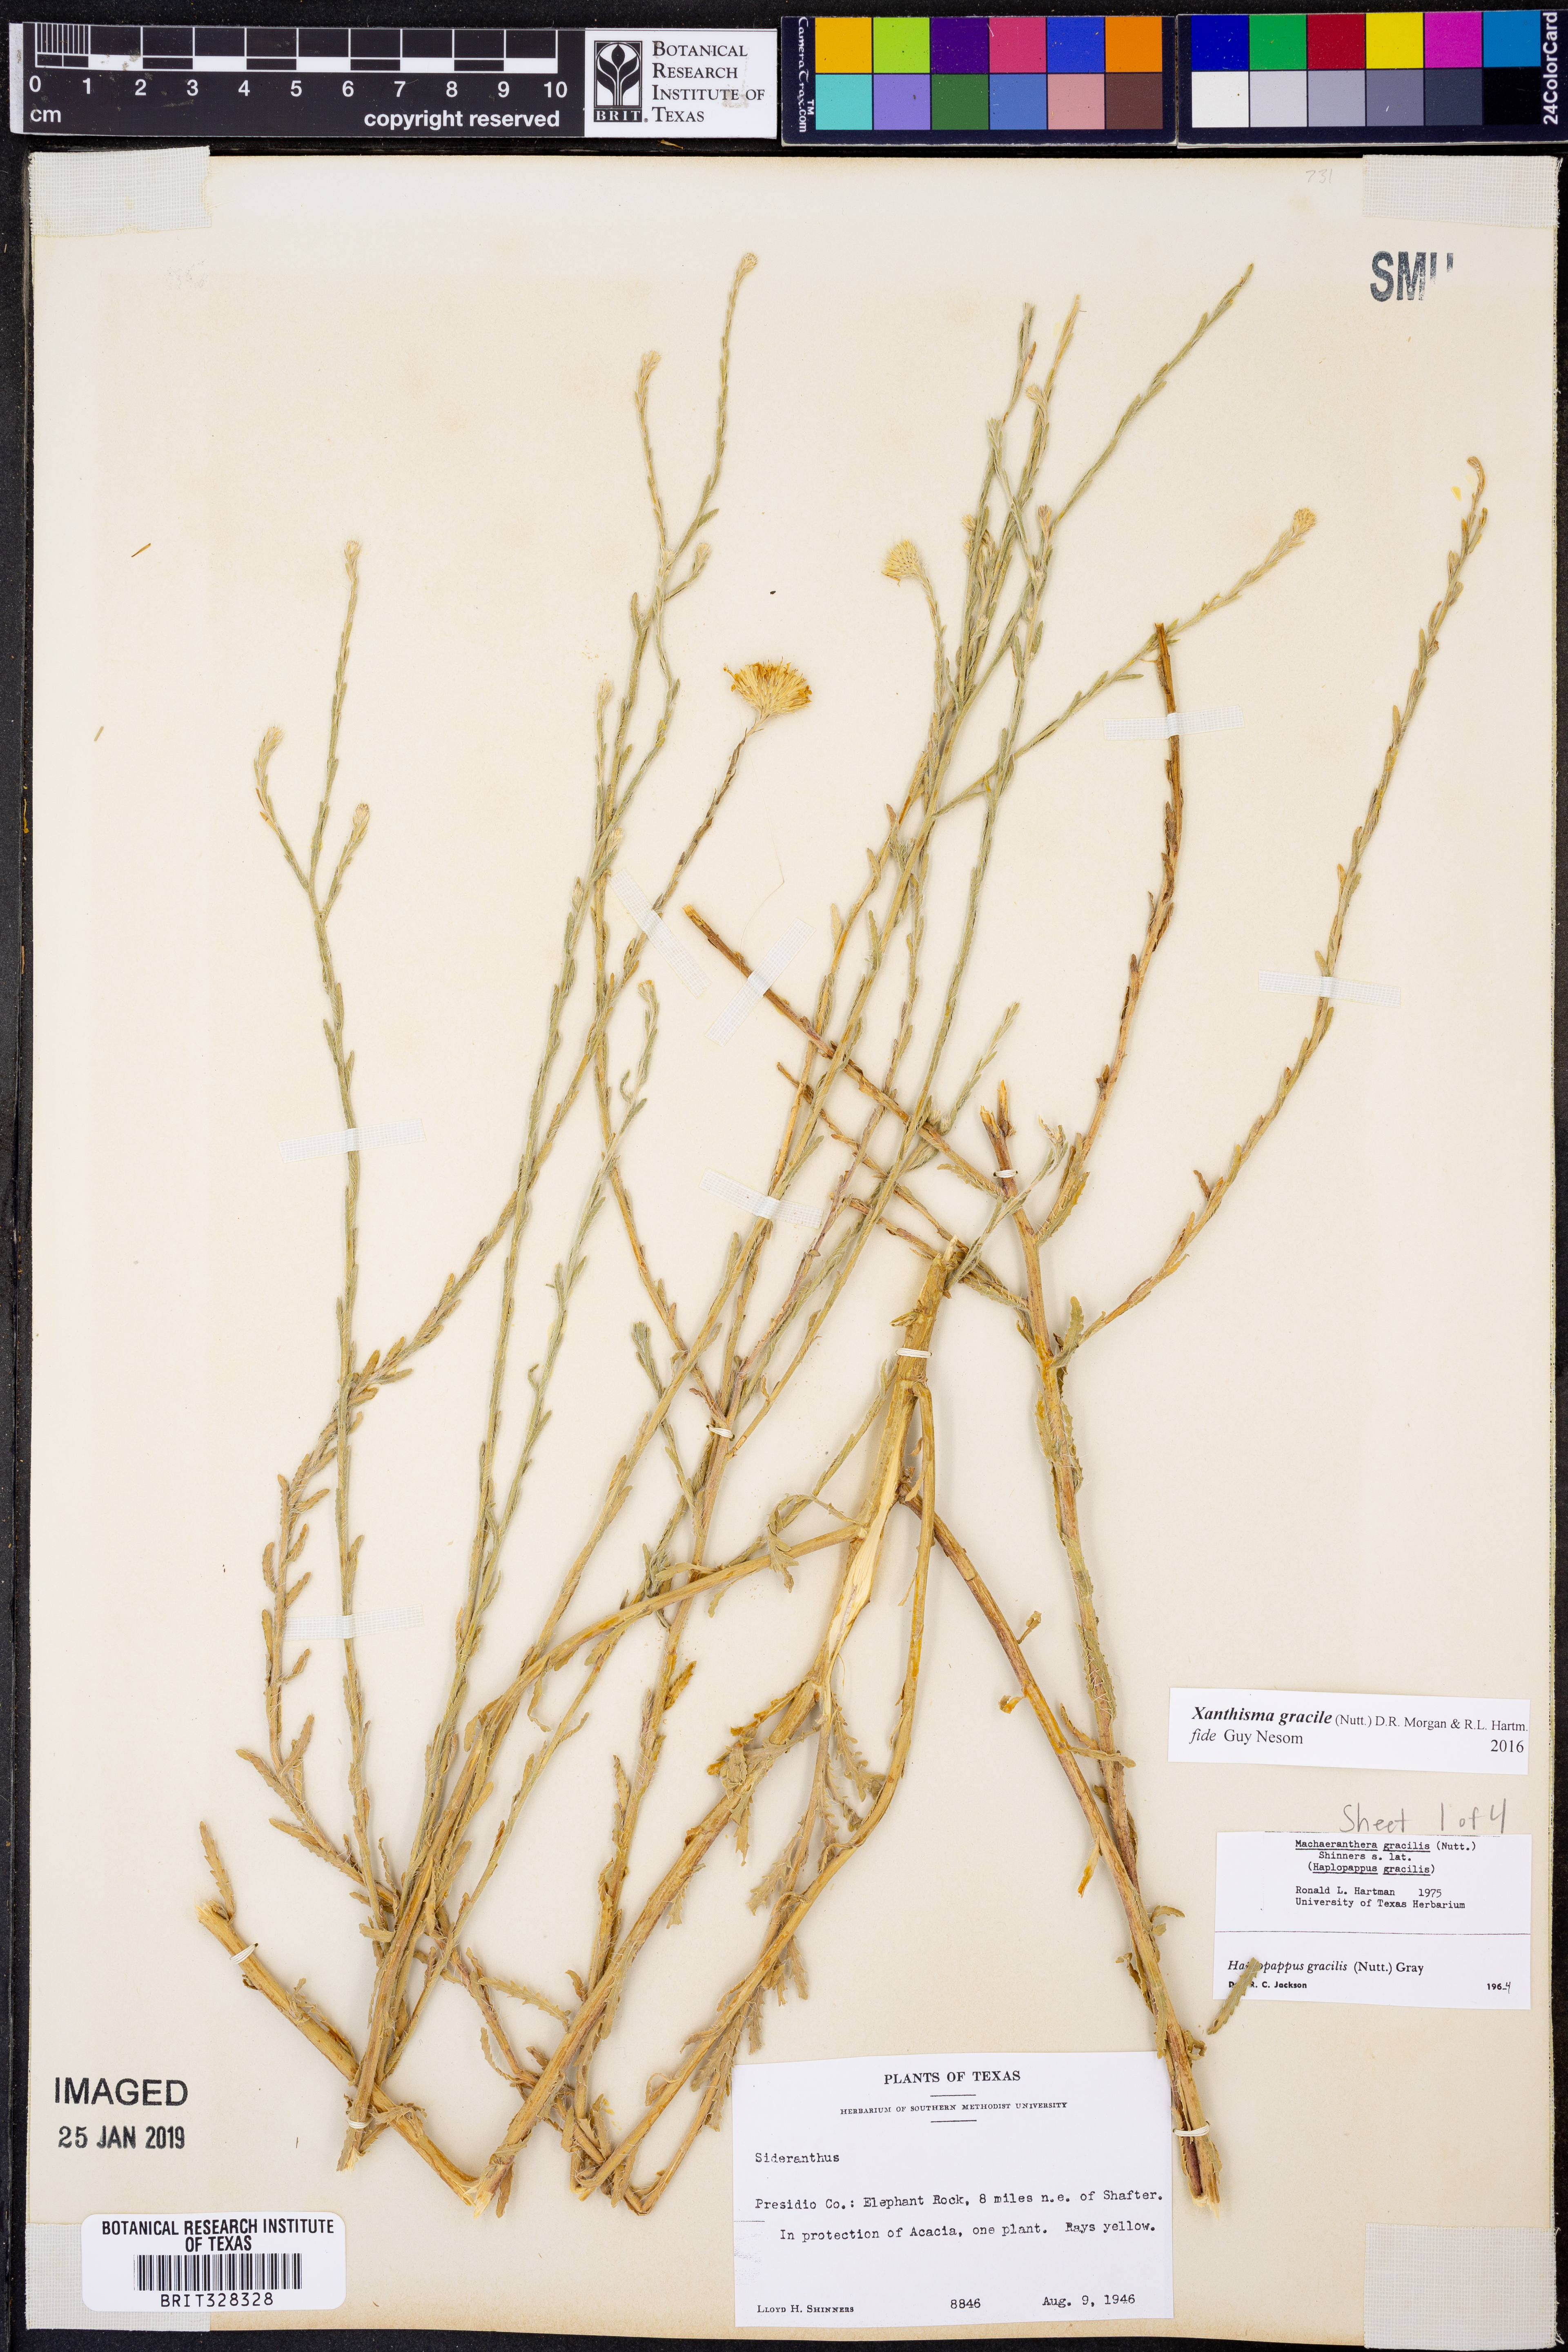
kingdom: Plantae
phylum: Tracheophyta
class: Magnoliopsida
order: Asterales
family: Asteraceae
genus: Xanthisma
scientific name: Xanthisma gracilis
